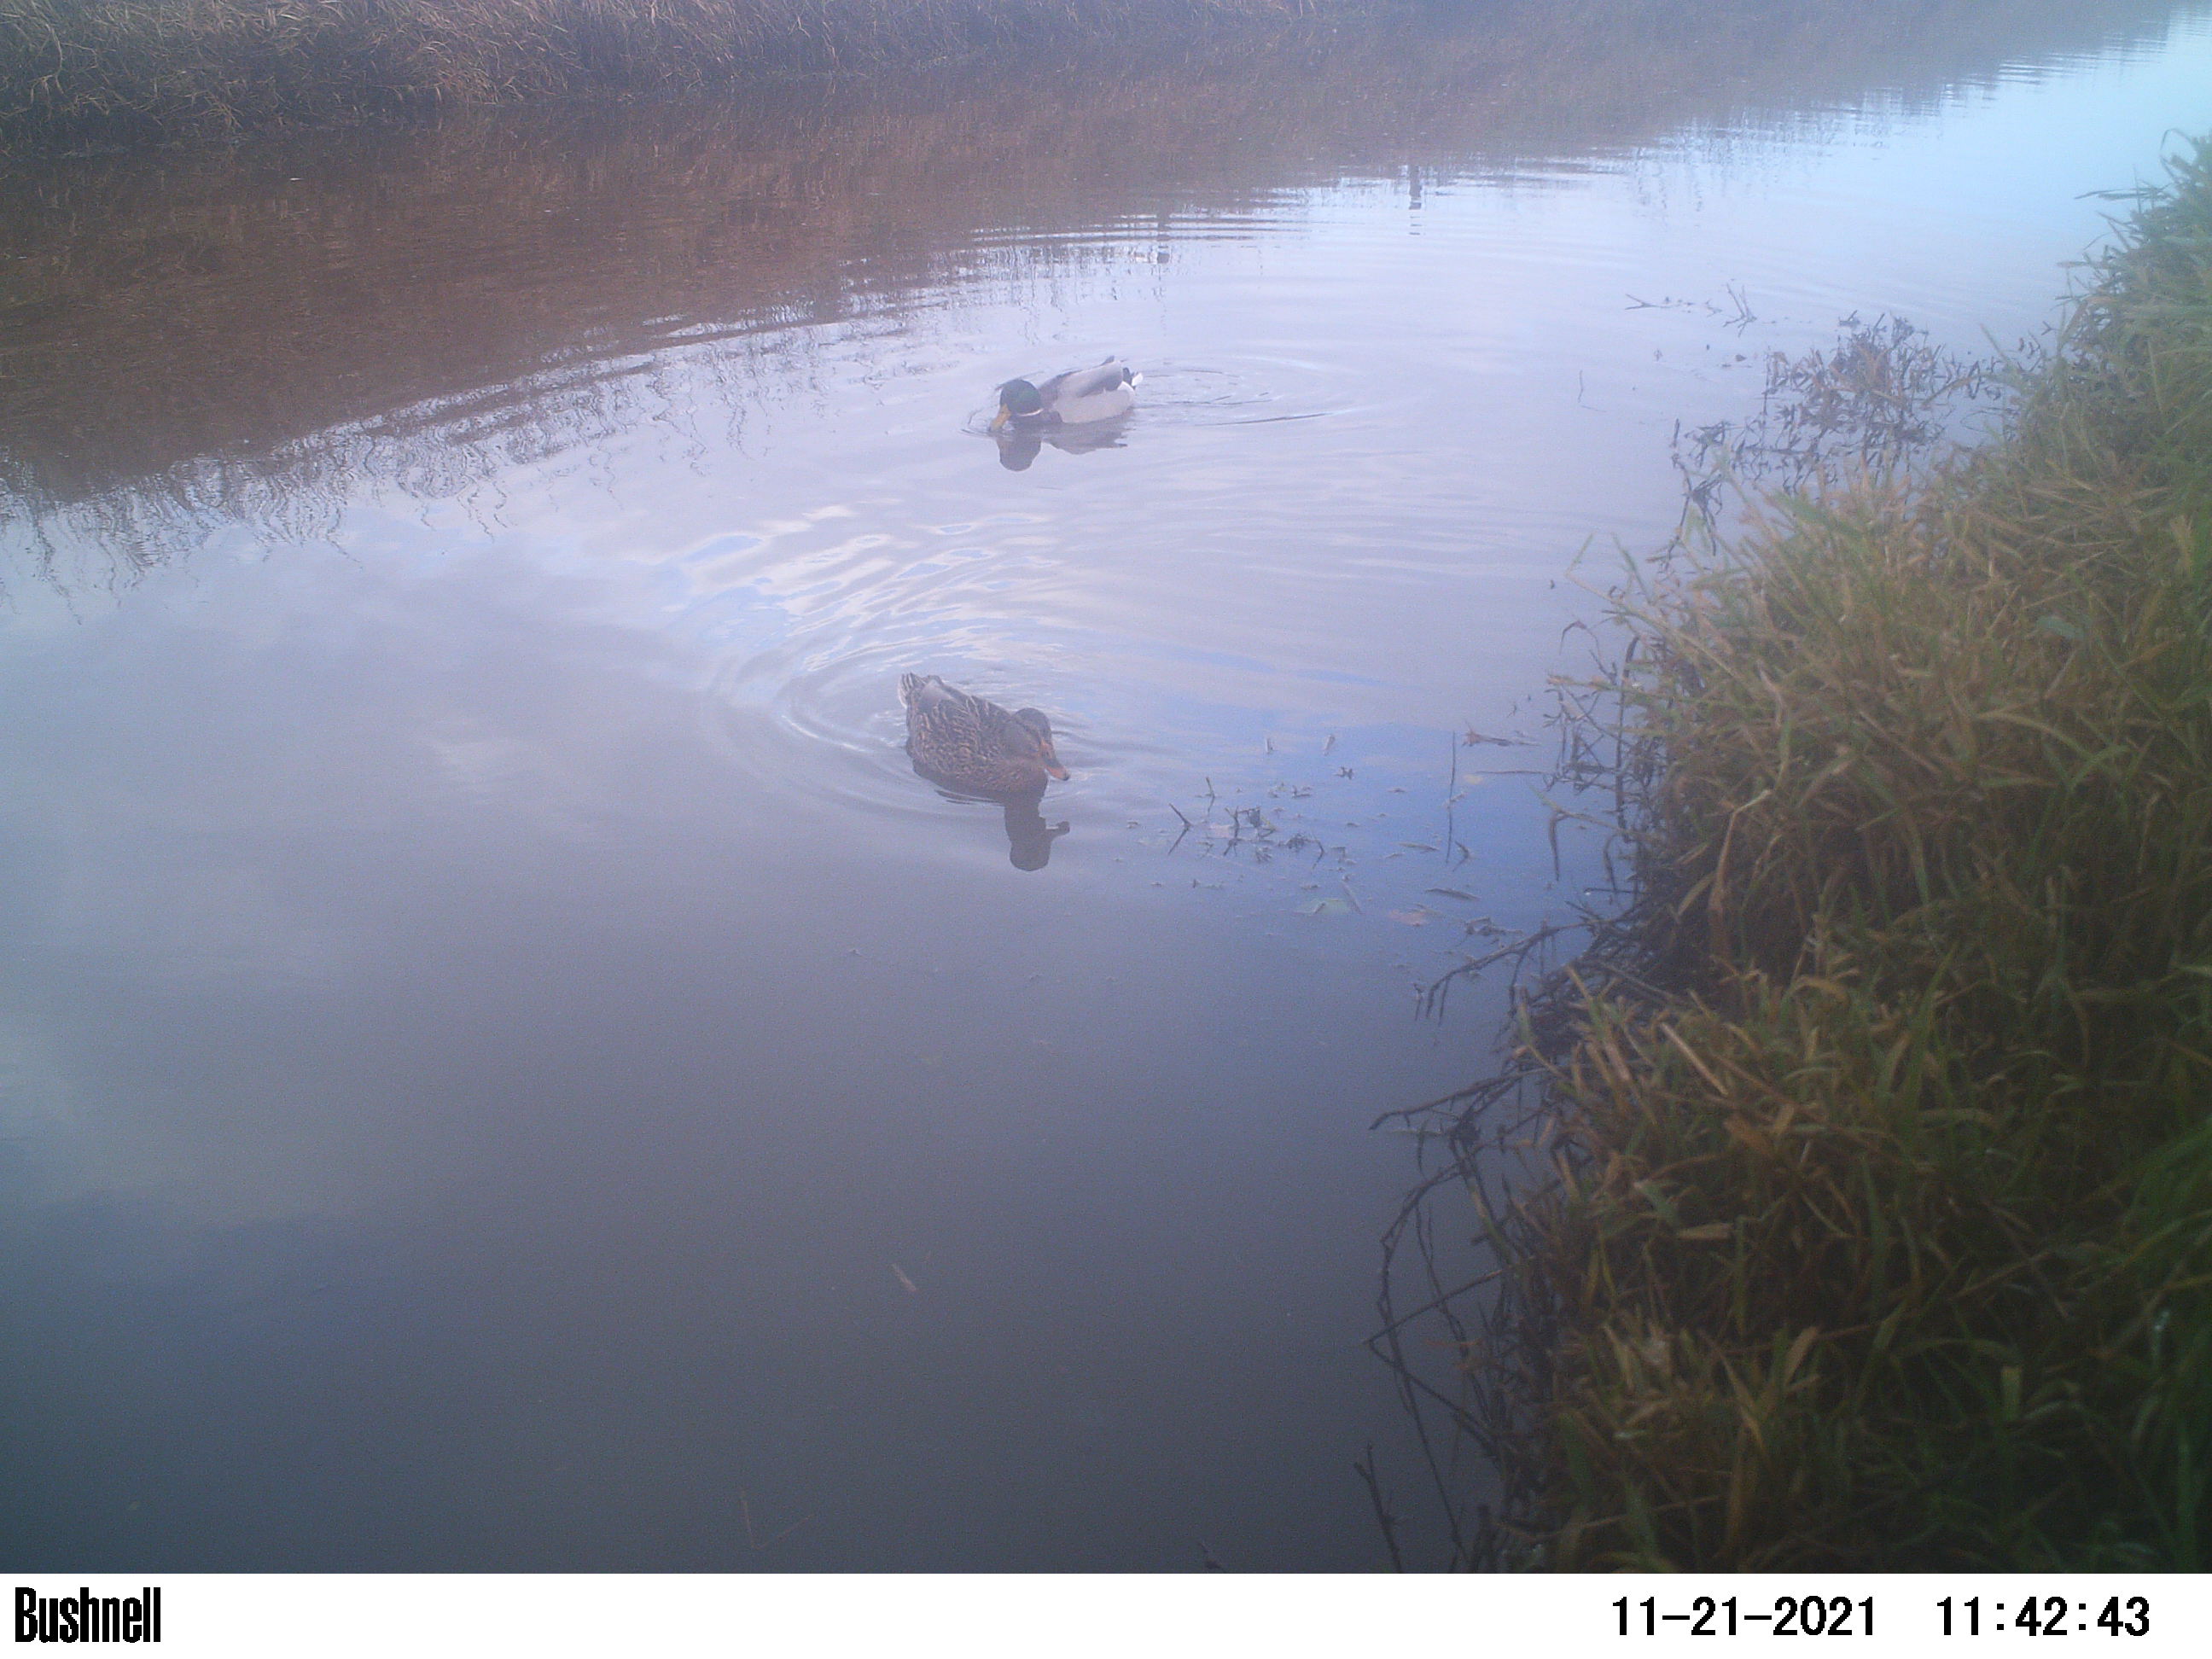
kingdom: Animalia
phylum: Chordata
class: Aves
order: Anseriformes
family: Anatidae
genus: Anas
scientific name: Anas
